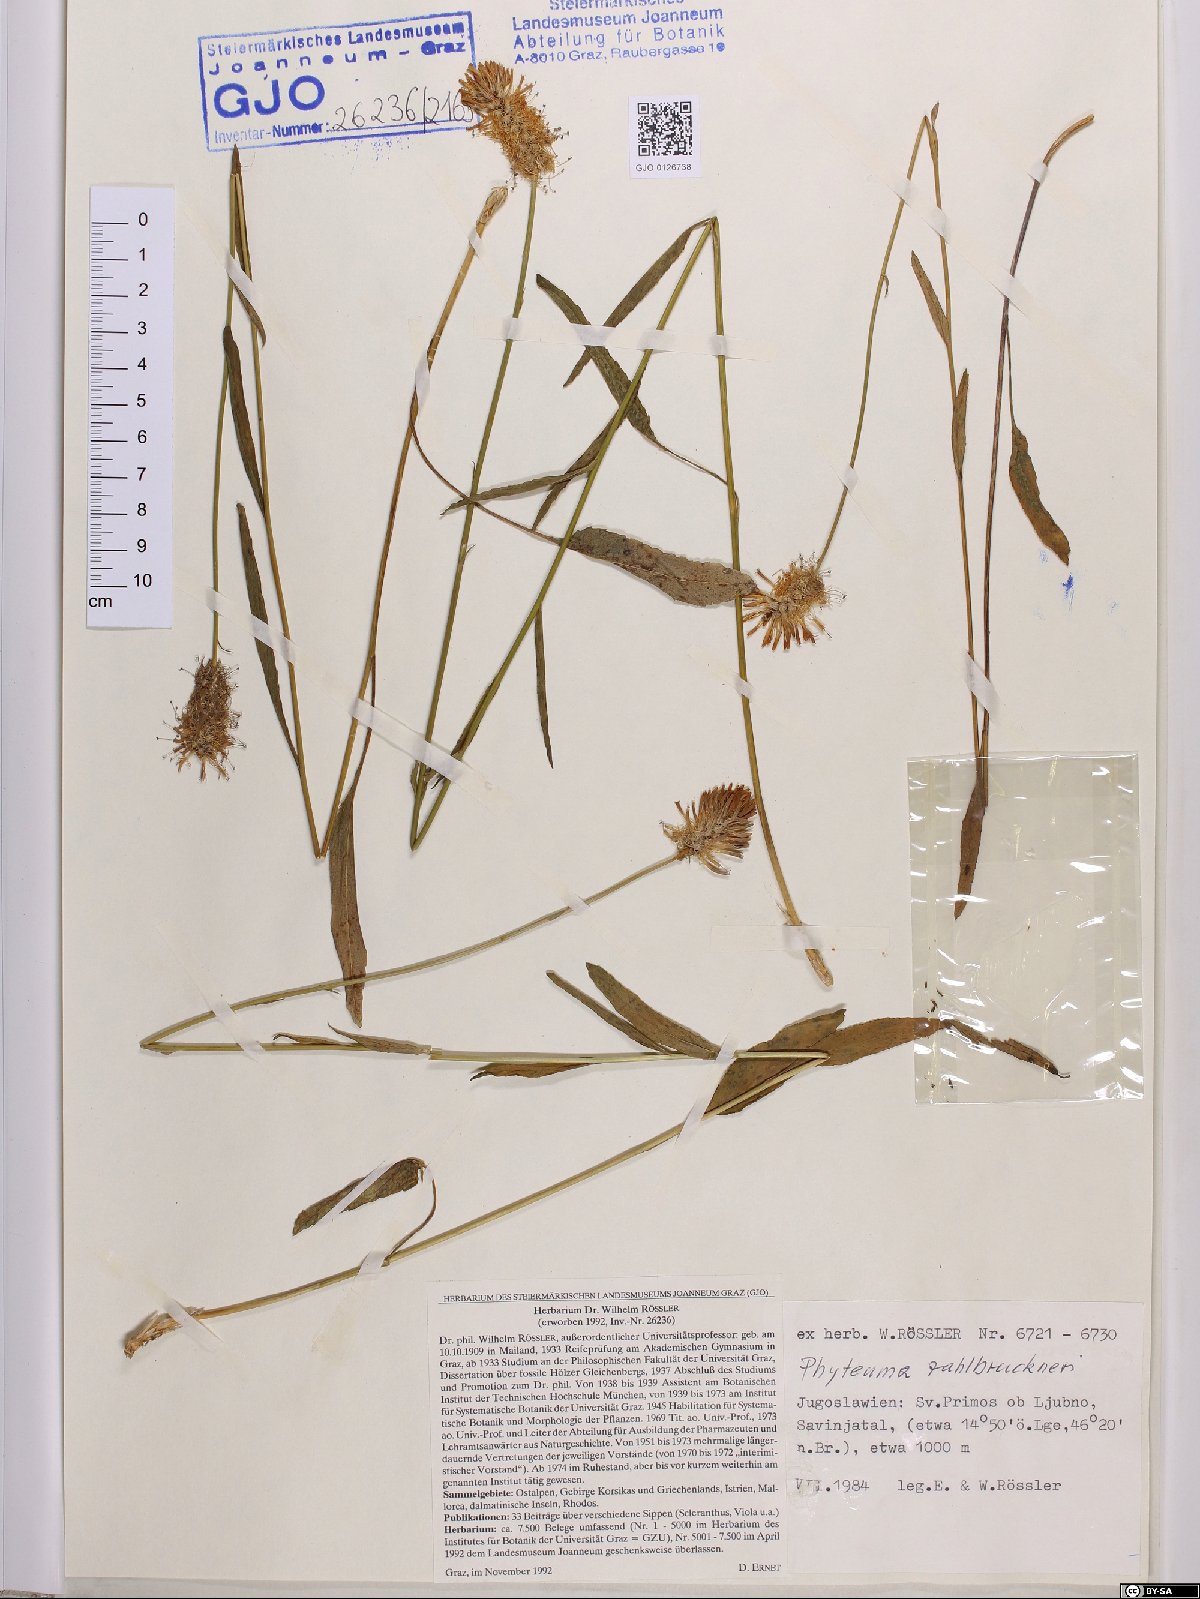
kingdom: Plantae
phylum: Tracheophyta
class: Magnoliopsida
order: Asterales
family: Campanulaceae
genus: Phyteuma
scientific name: Phyteuma persicifolium
